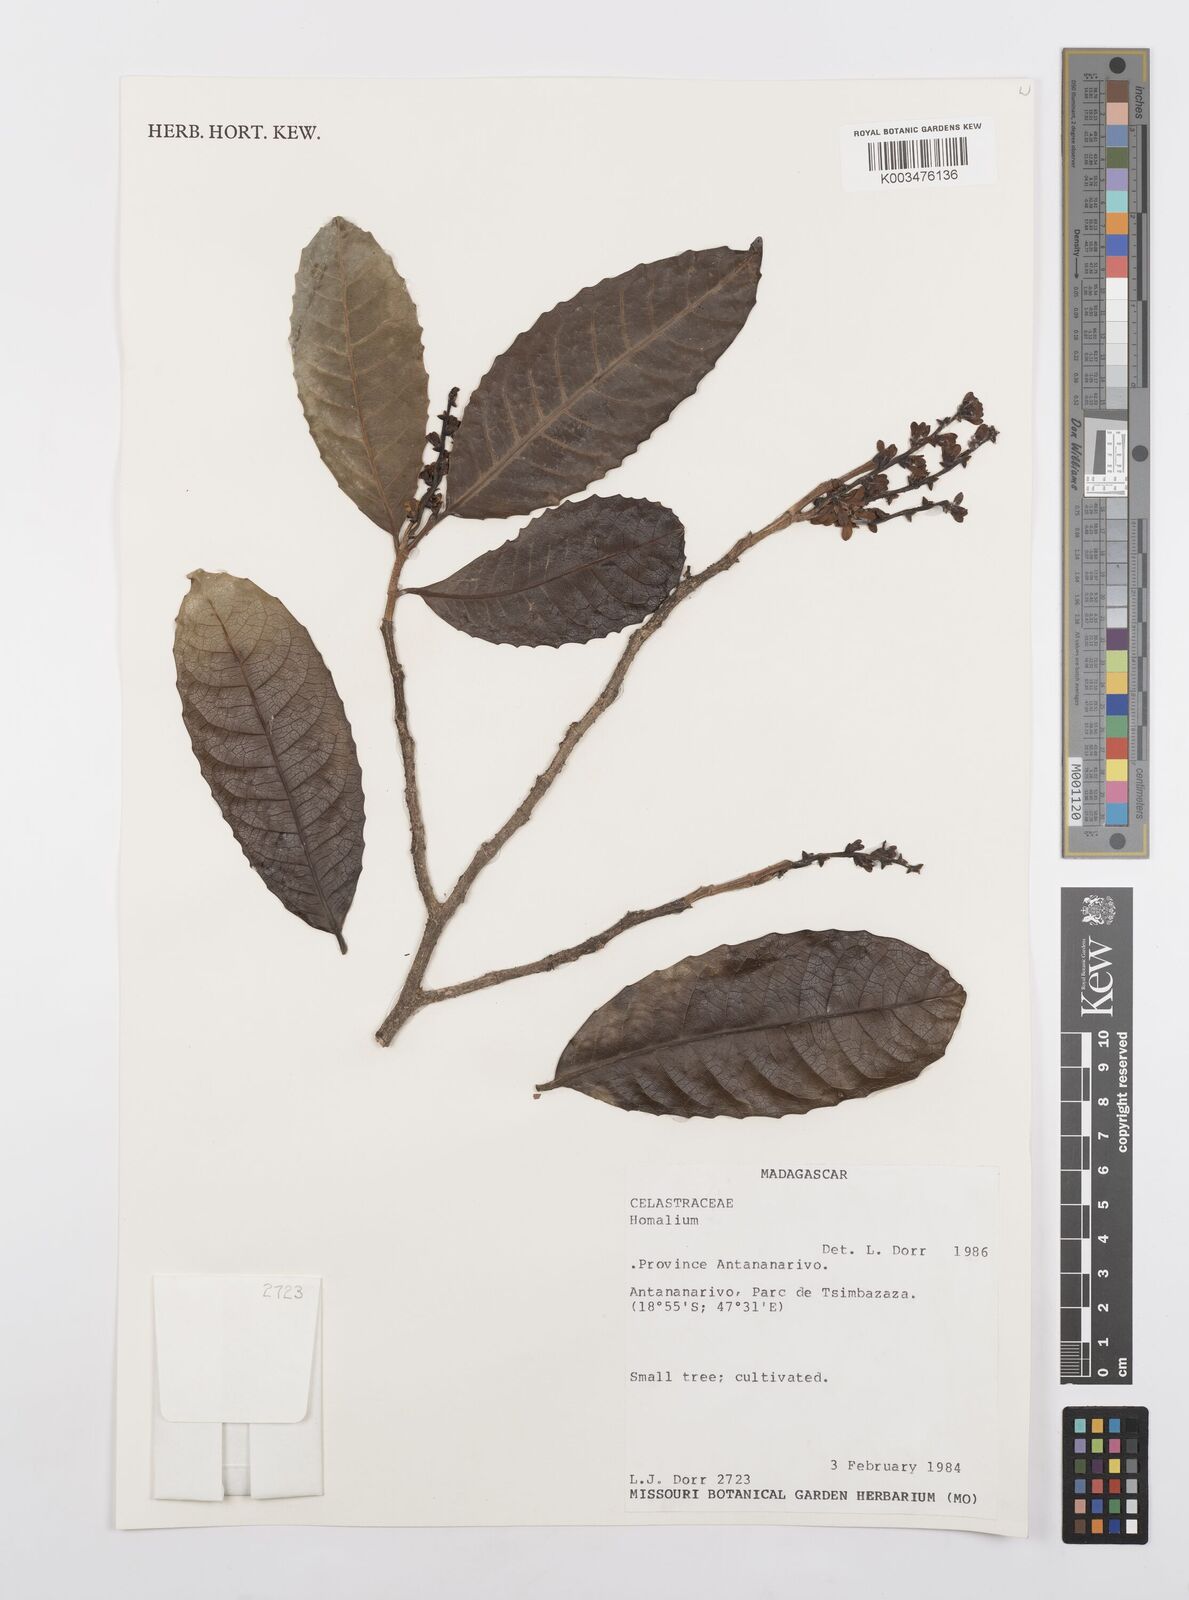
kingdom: Plantae
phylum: Tracheophyta
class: Magnoliopsida
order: Malpighiales
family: Salicaceae
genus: Homalium
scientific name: Homalium
